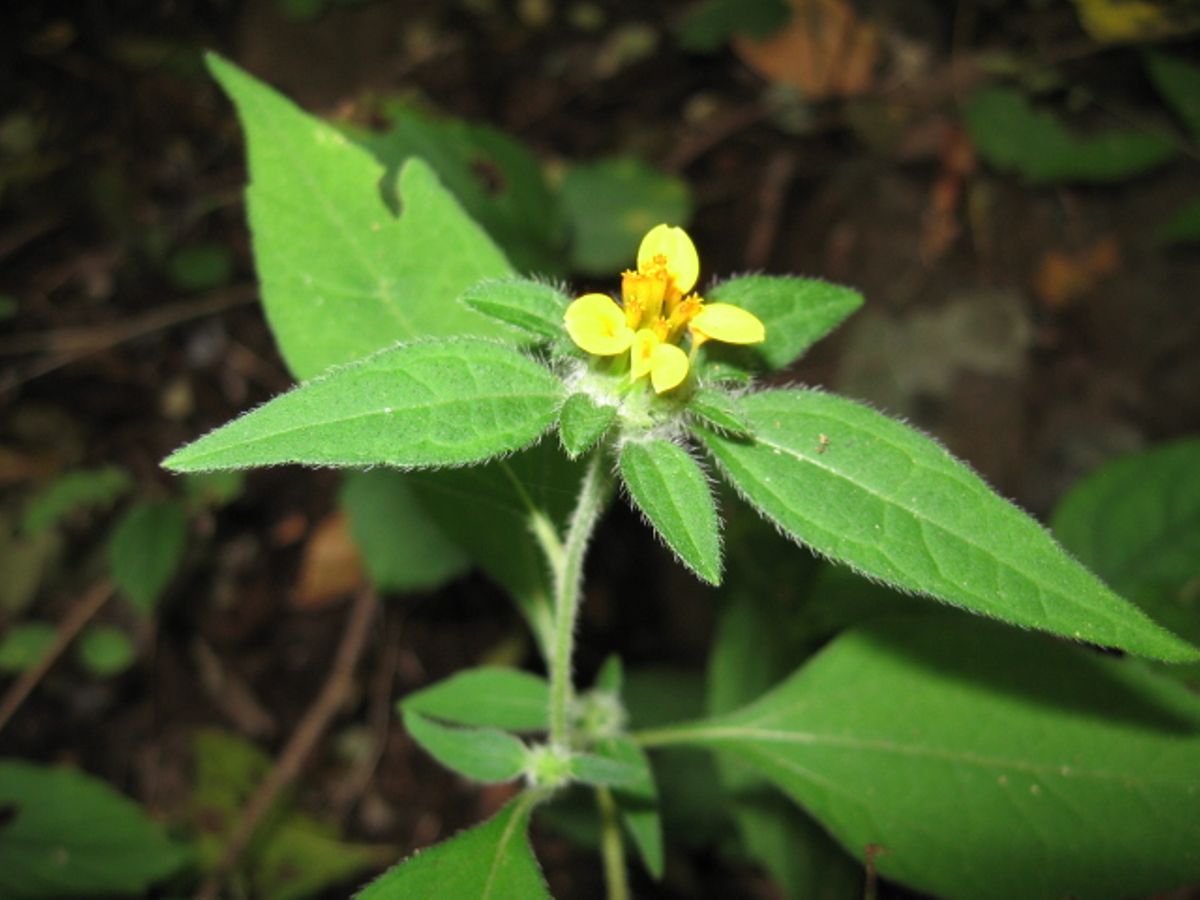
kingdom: Plantae
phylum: Tracheophyta
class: Magnoliopsida
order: Asterales
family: Asteraceae
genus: Sclerocarpus
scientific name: Sclerocarpus phyllocephalus
